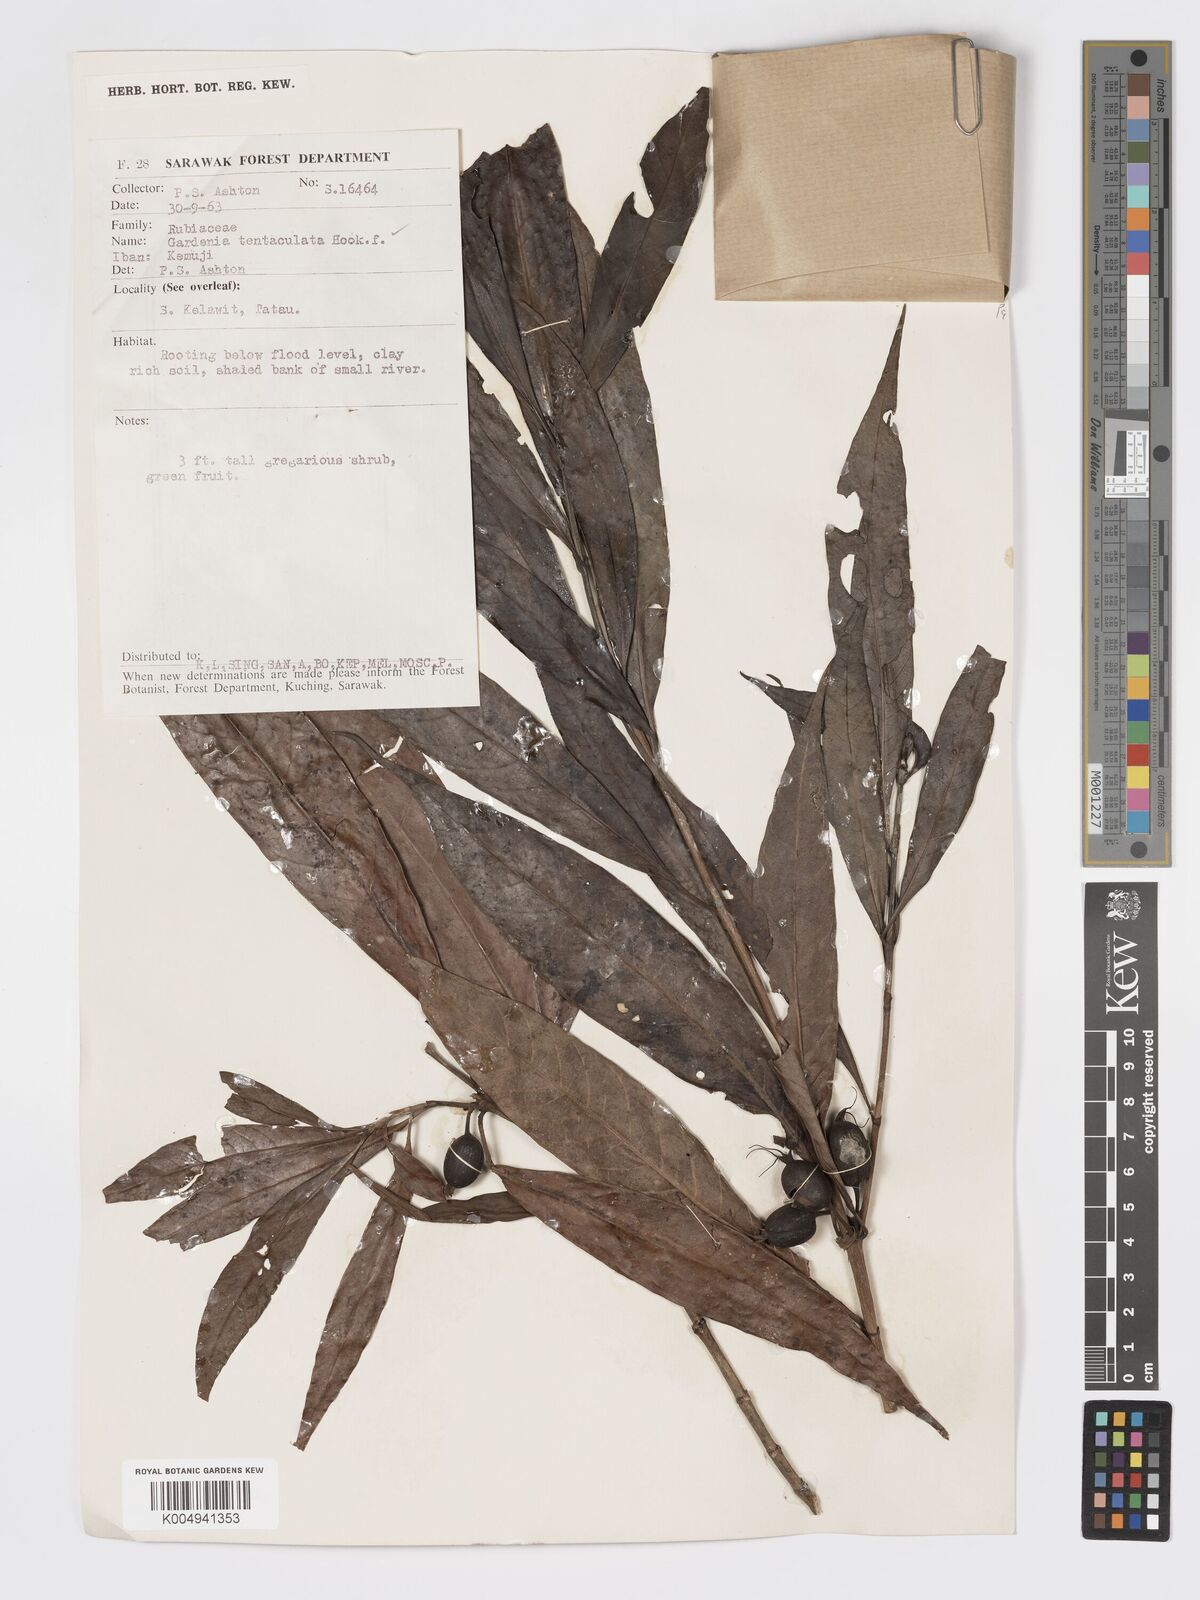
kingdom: Plantae
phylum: Tracheophyta
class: Magnoliopsida
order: Gentianales
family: Rubiaceae
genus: Kailarsenia
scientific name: Kailarsenia tentaculata
